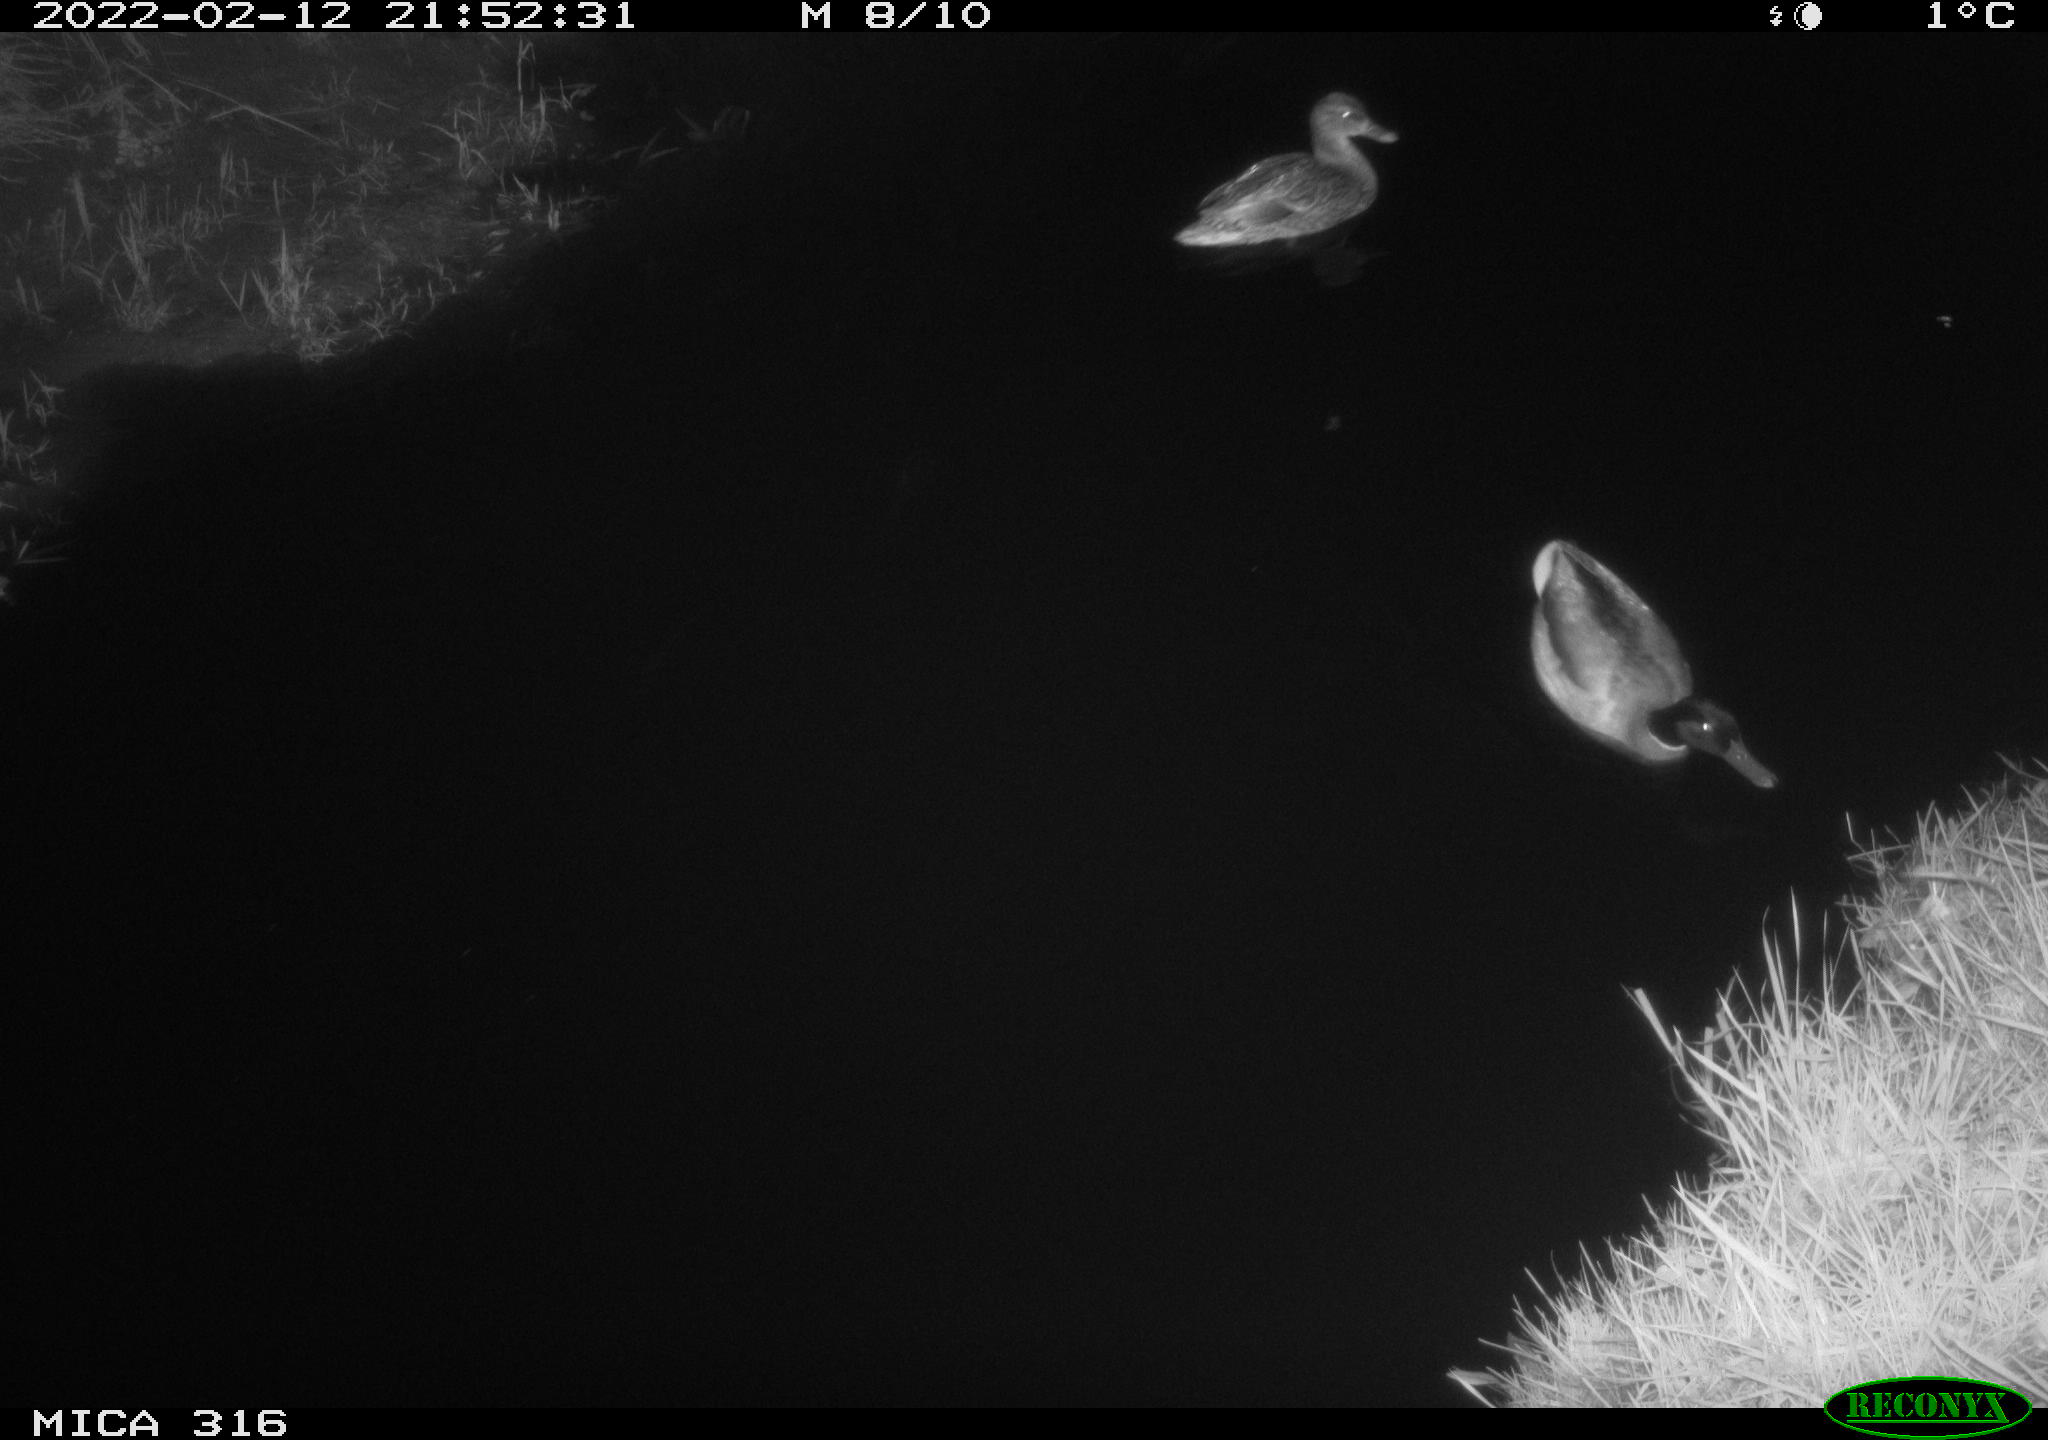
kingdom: Animalia
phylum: Chordata
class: Aves
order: Anseriformes
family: Anatidae
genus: Anas
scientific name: Anas platyrhynchos
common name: Mallard
